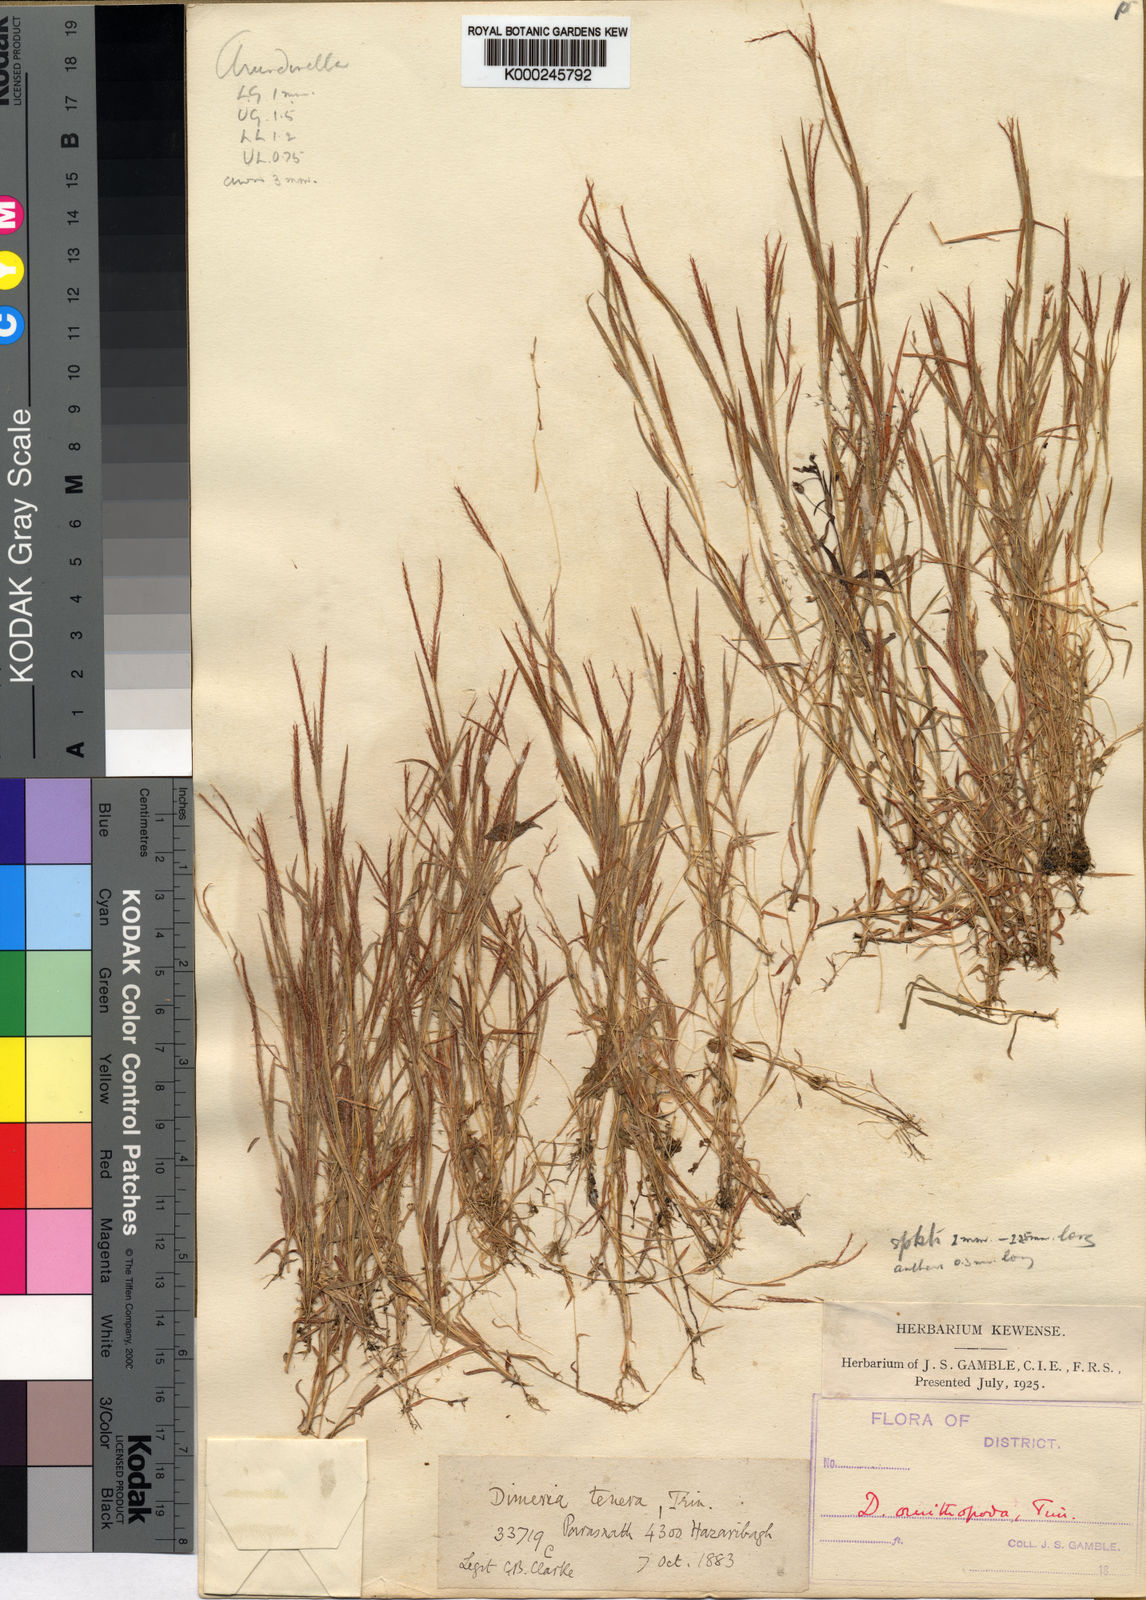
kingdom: Plantae
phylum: Tracheophyta
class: Liliopsida
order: Poales
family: Poaceae
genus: Dimeria
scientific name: Dimeria ornithopoda
